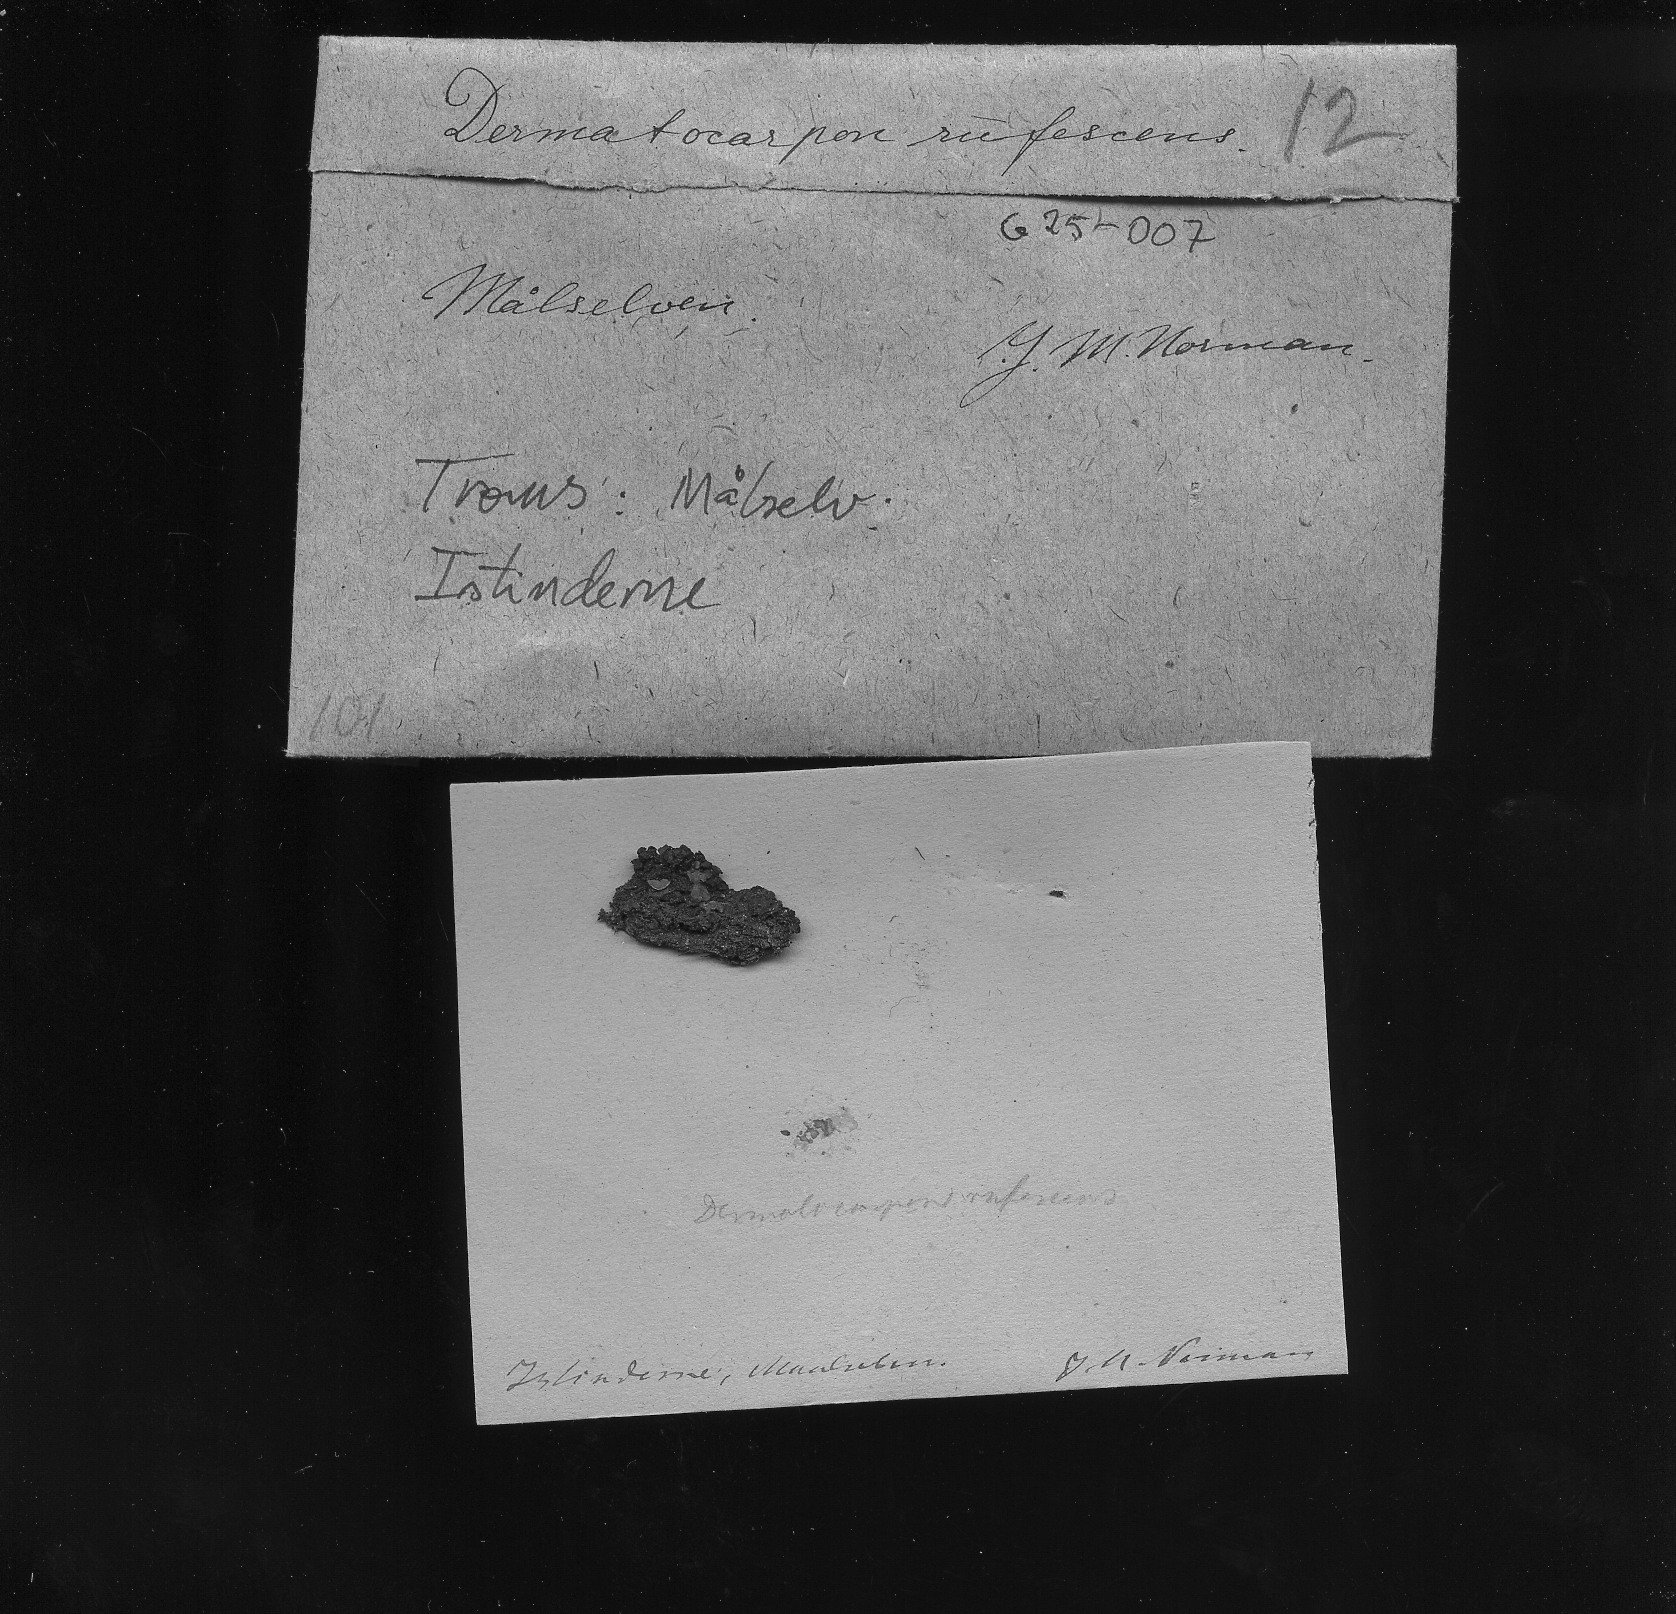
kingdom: Fungi
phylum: Ascomycota
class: Eurotiomycetes
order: Verrucariales
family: Verrucariaceae
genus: Catapyrenium
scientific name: Catapyrenium rufescens
